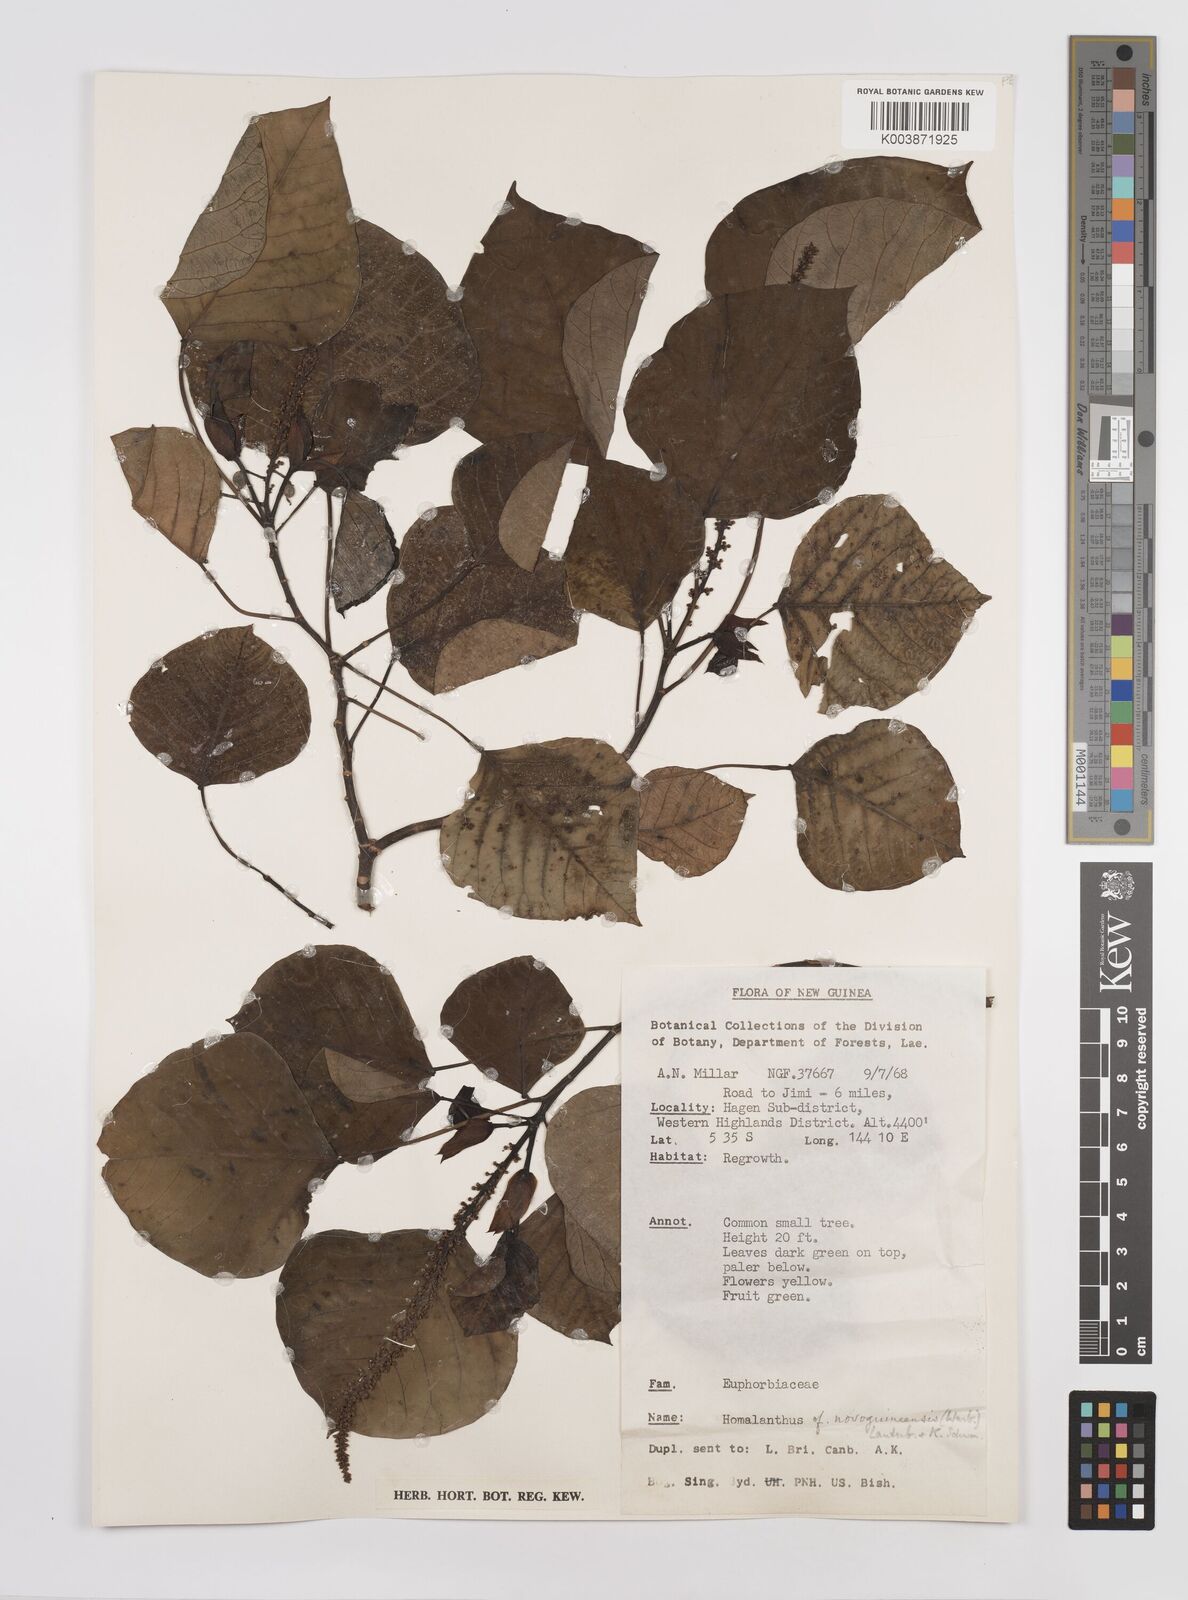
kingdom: Plantae
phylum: Tracheophyta
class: Magnoliopsida
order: Malpighiales
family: Euphorbiaceae
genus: Homalanthus
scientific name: Homalanthus novoguineensis
